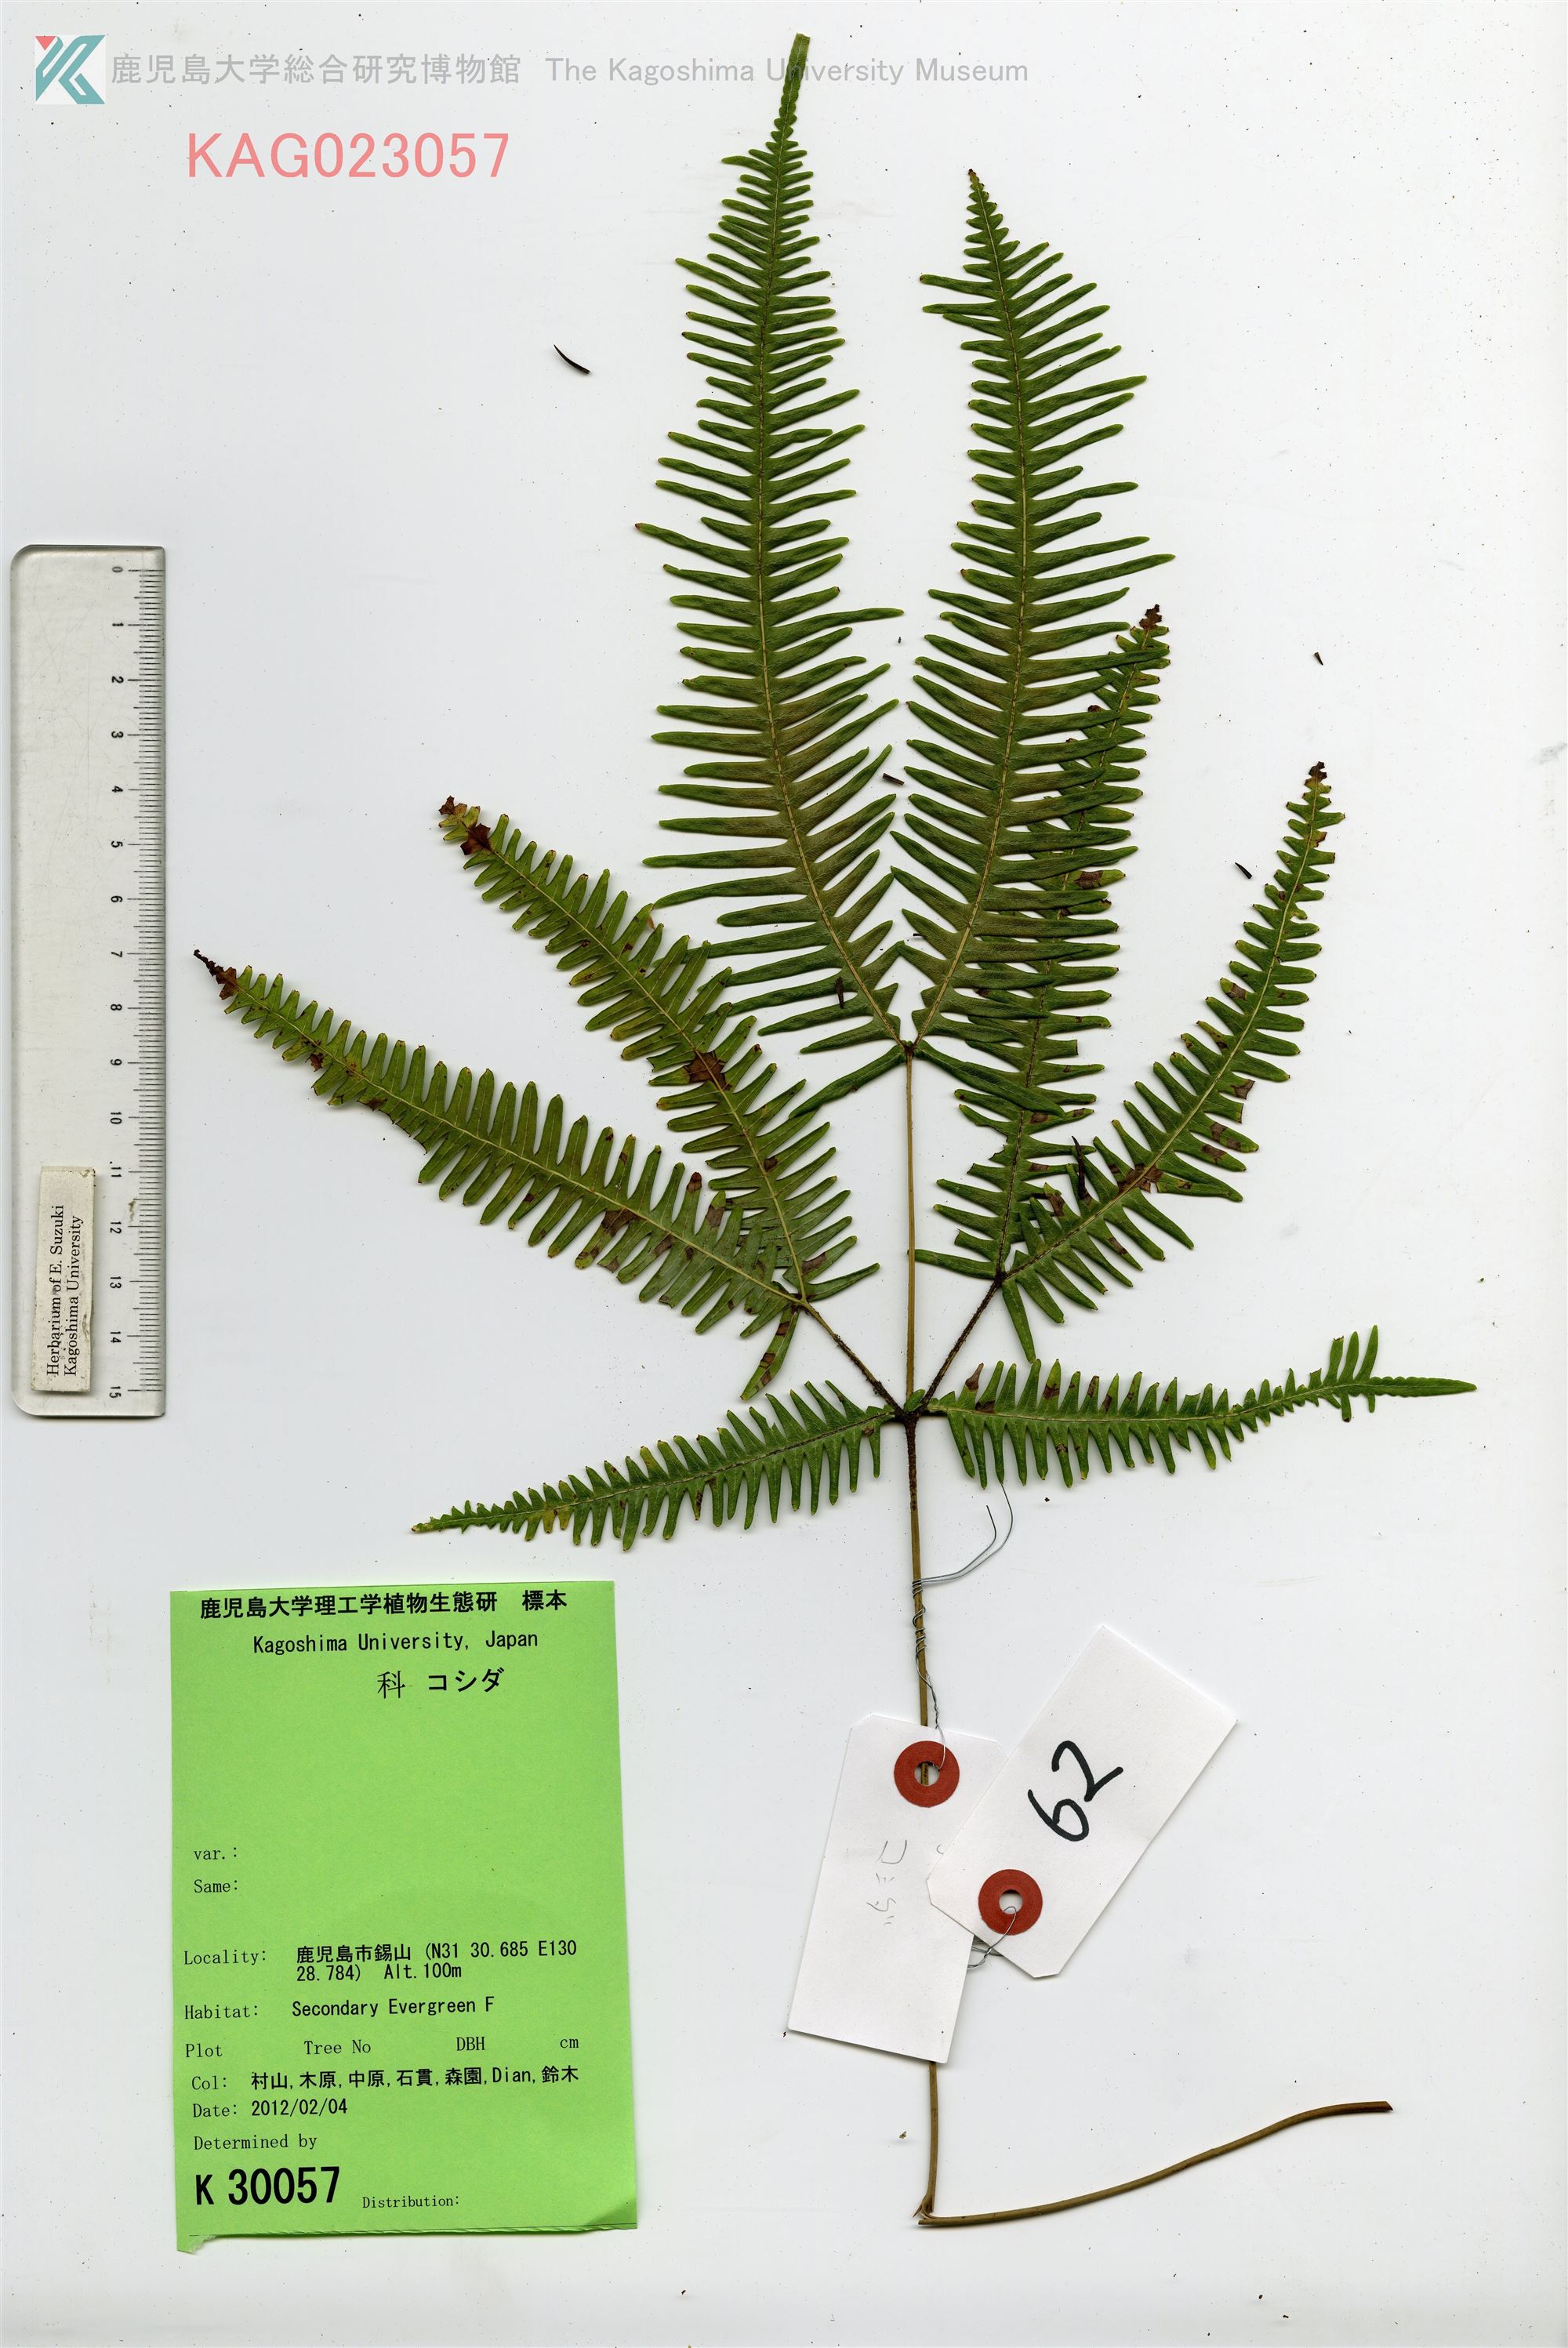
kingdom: Plantae
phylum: Tracheophyta
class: Polypodiopsida
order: Gleicheniales
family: Gleicheniaceae
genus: Dicranopteris
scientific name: Dicranopteris pedata
